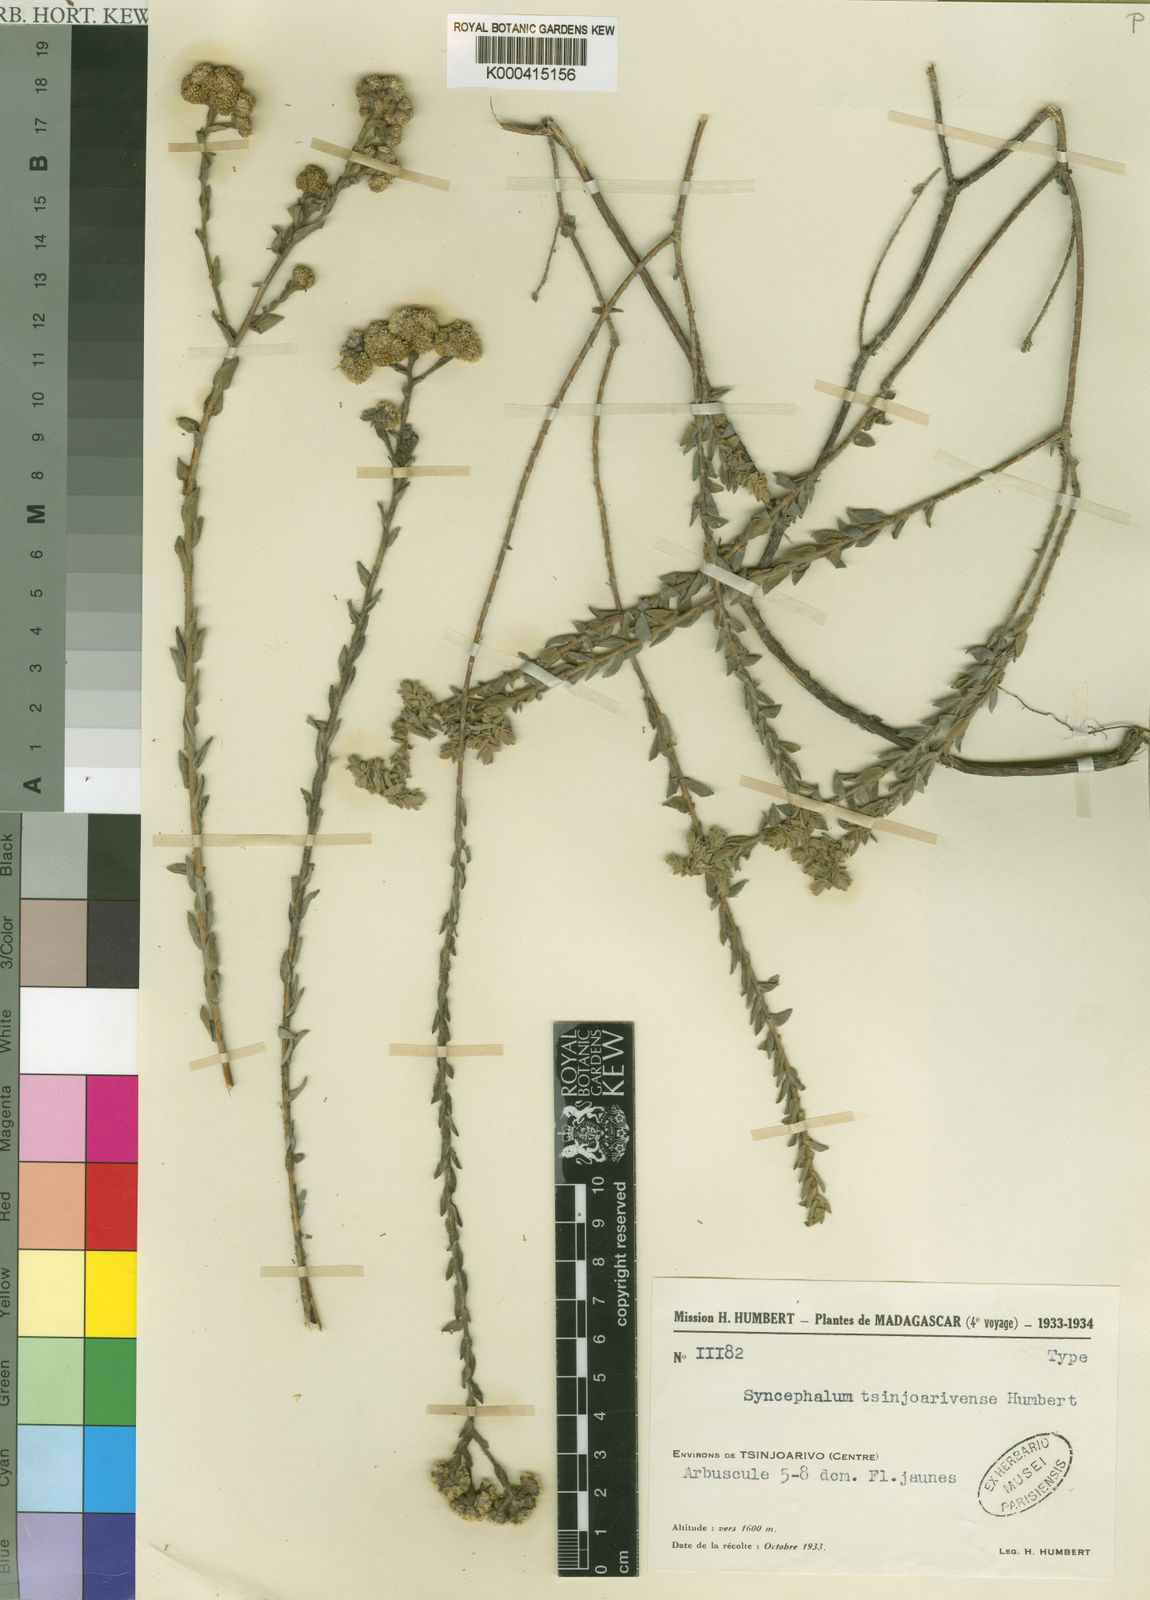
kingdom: Plantae
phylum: Tracheophyta
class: Magnoliopsida
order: Asterales
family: Asteraceae
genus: Syncephalum
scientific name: Syncephalum tsinjoarivense
